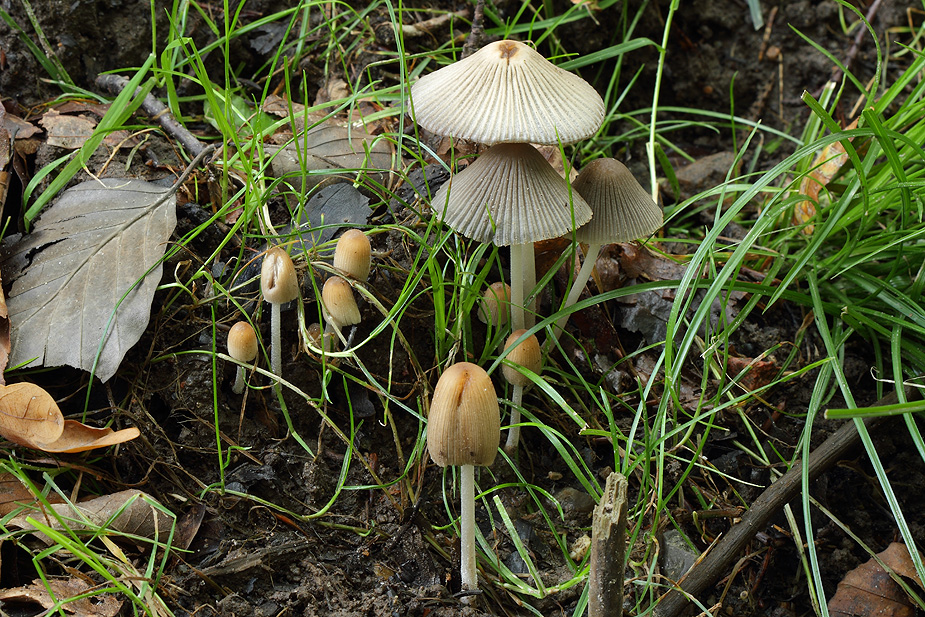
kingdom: Fungi
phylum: Basidiomycota
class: Agaricomycetes
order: Agaricales
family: Psathyrellaceae
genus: Tulosesus
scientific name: Tulosesus hiascens
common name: udspilet blækhat
